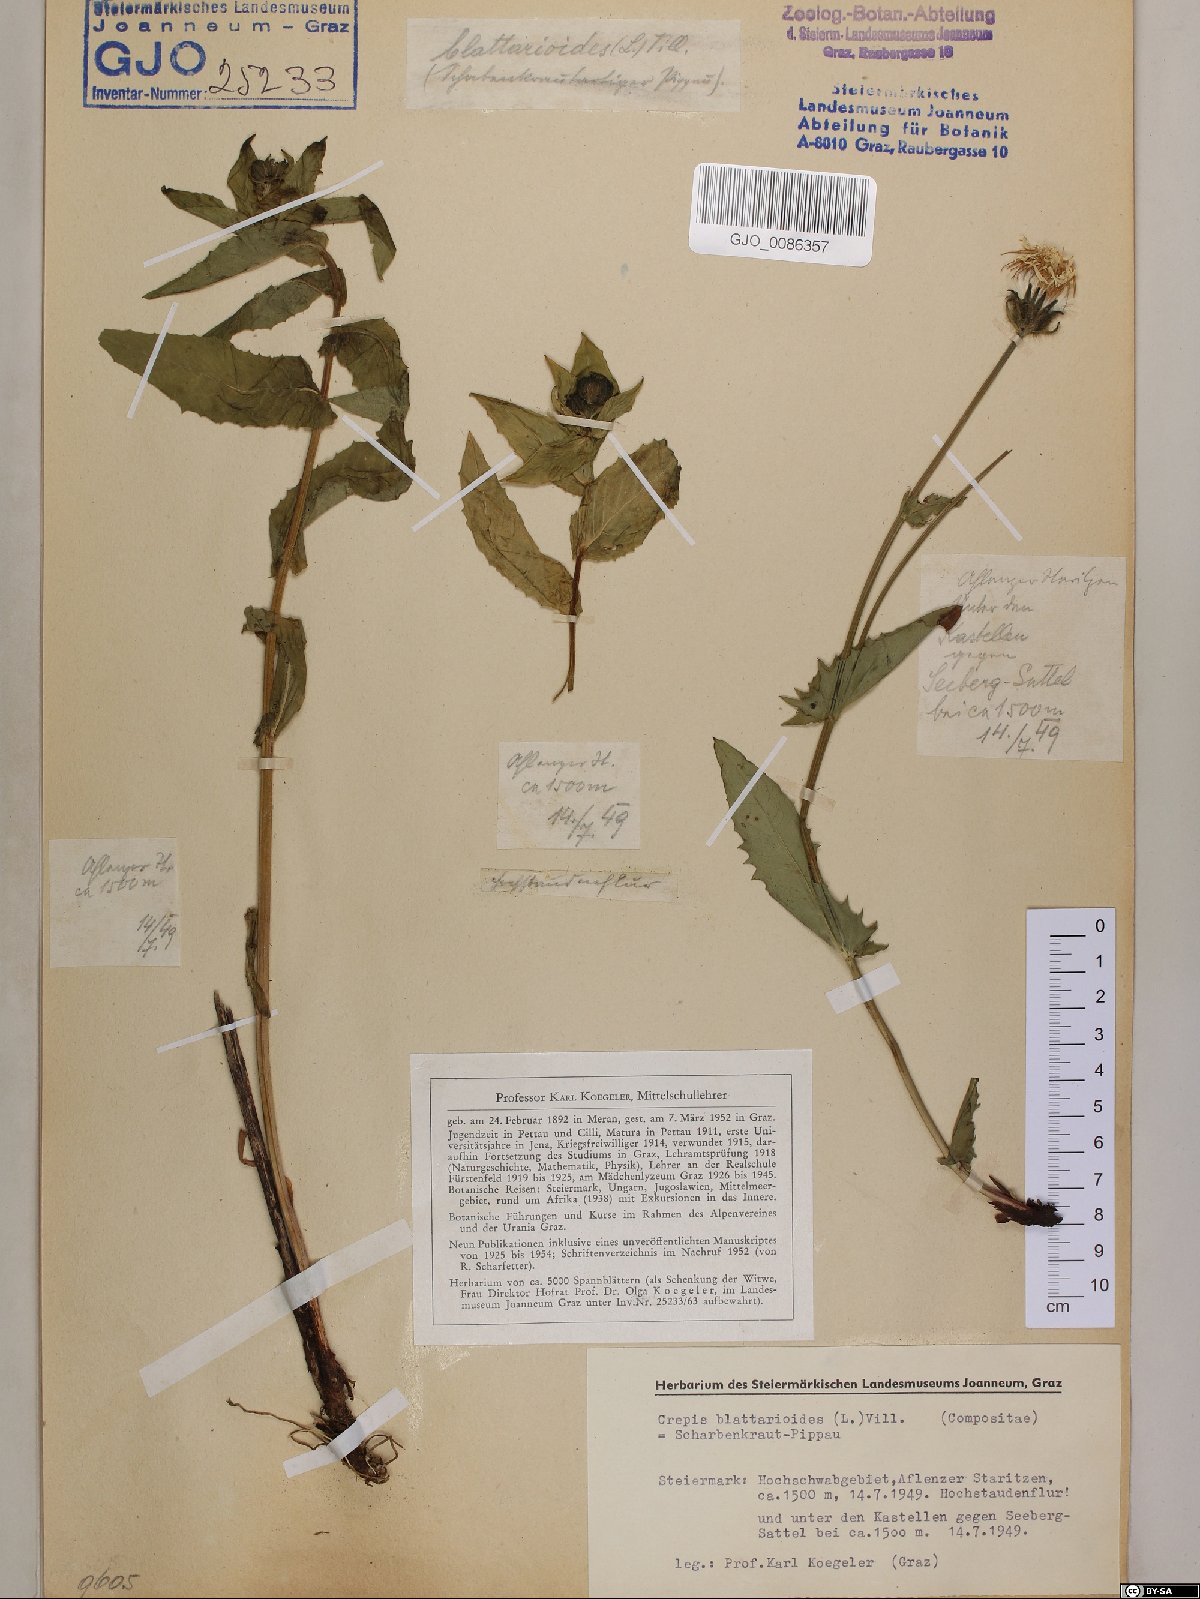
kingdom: Plantae
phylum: Tracheophyta
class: Magnoliopsida
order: Asterales
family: Asteraceae
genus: Crepis
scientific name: Crepis blattarioides
